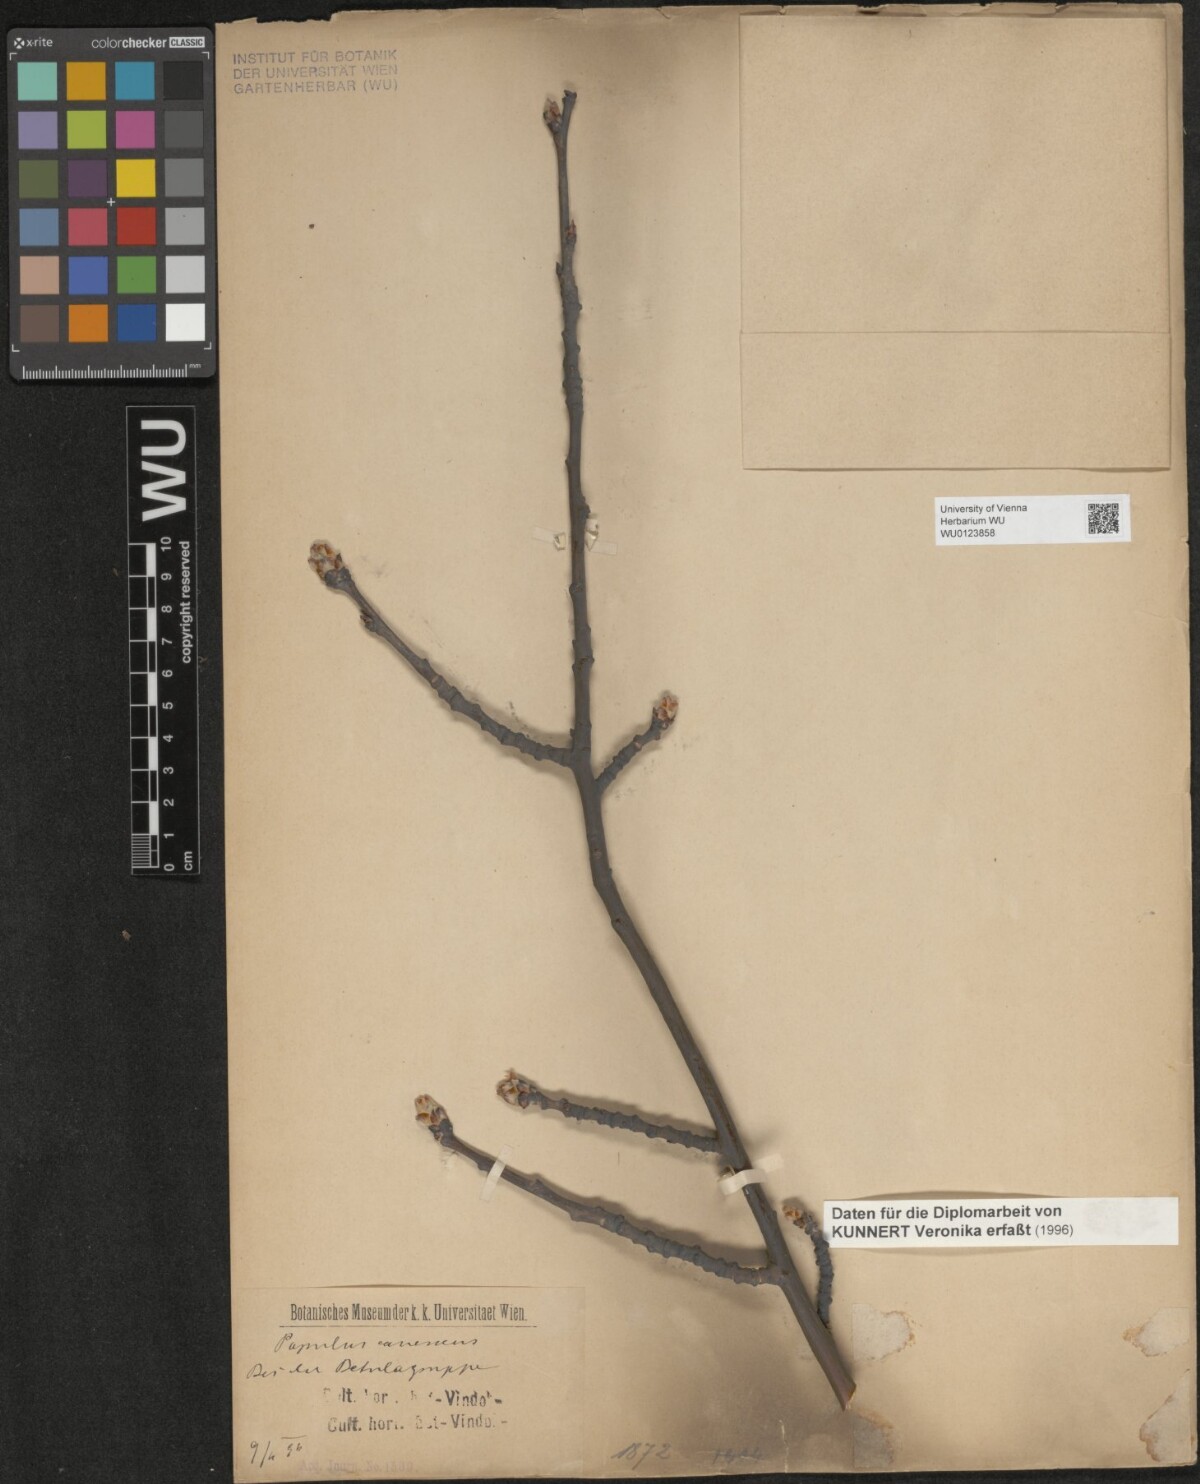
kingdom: Plantae
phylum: Tracheophyta
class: Magnoliopsida
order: Malpighiales
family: Salicaceae
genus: Populus
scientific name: Populus canescens
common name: Gray poplar
